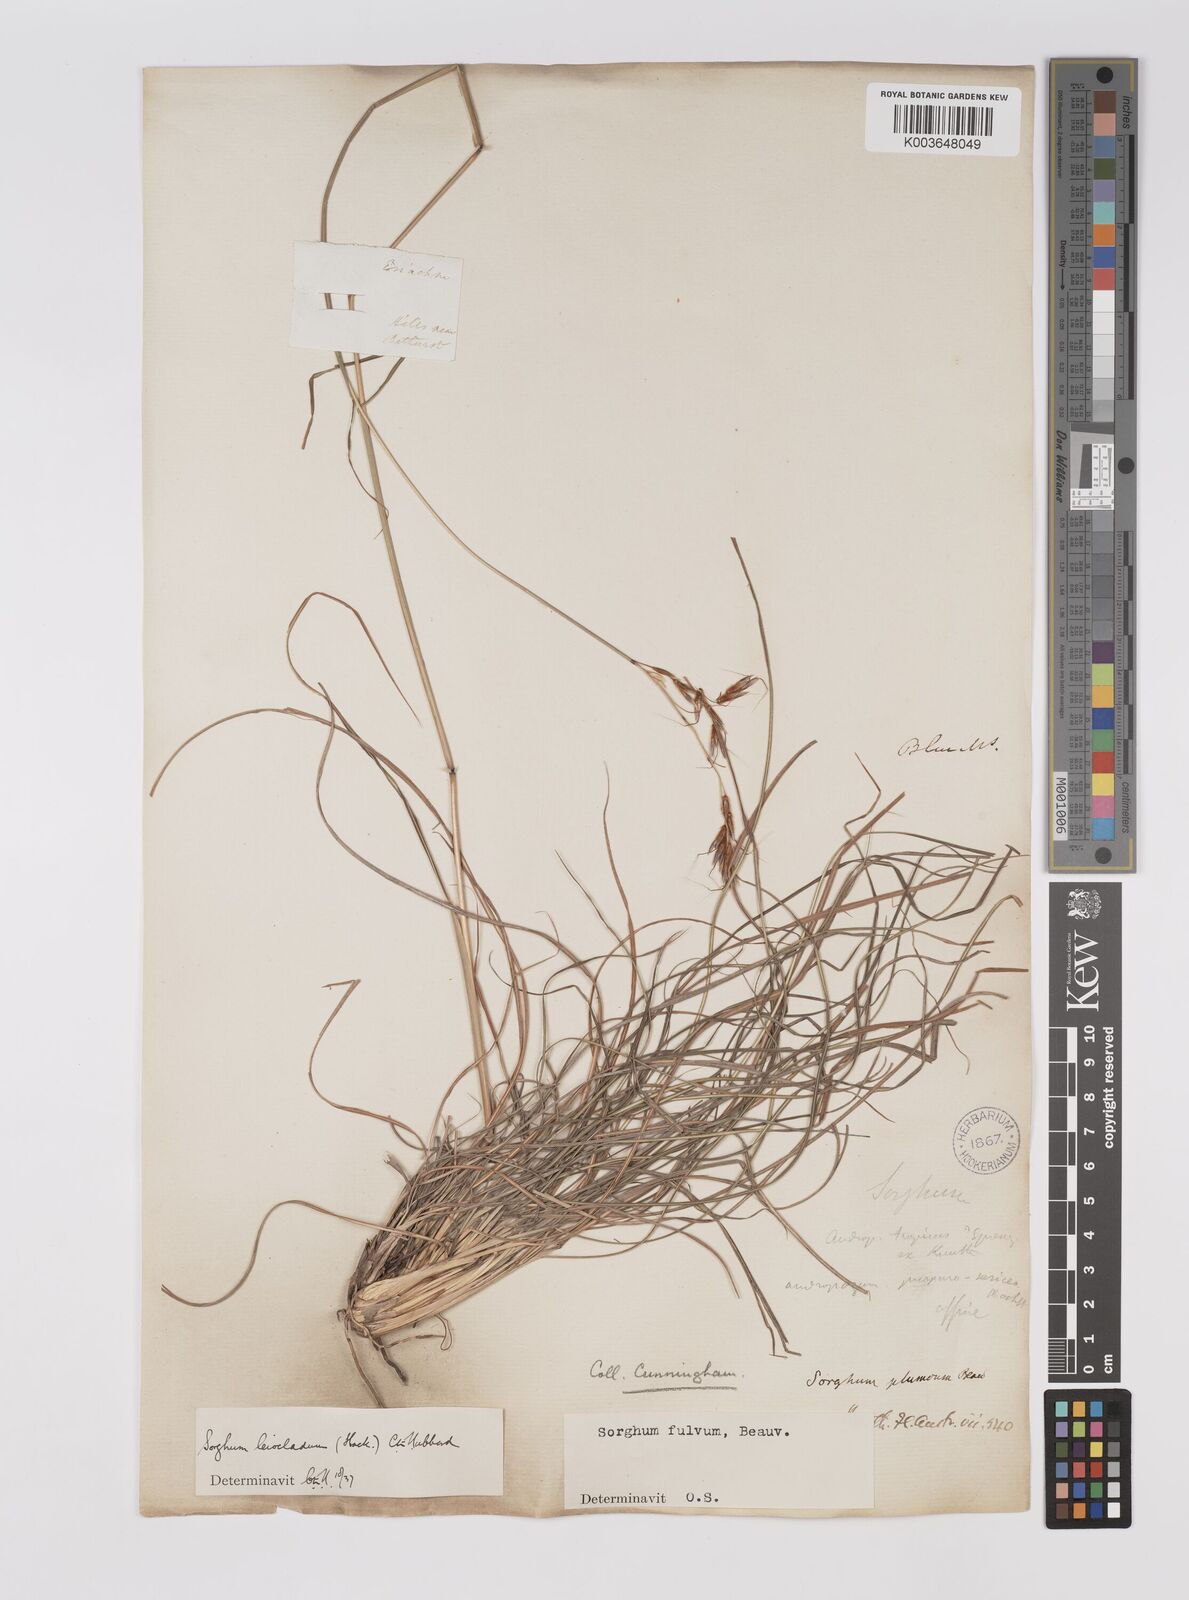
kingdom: Plantae
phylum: Tracheophyta
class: Liliopsida
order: Poales
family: Poaceae
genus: Sarga
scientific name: Sarga leioclada
